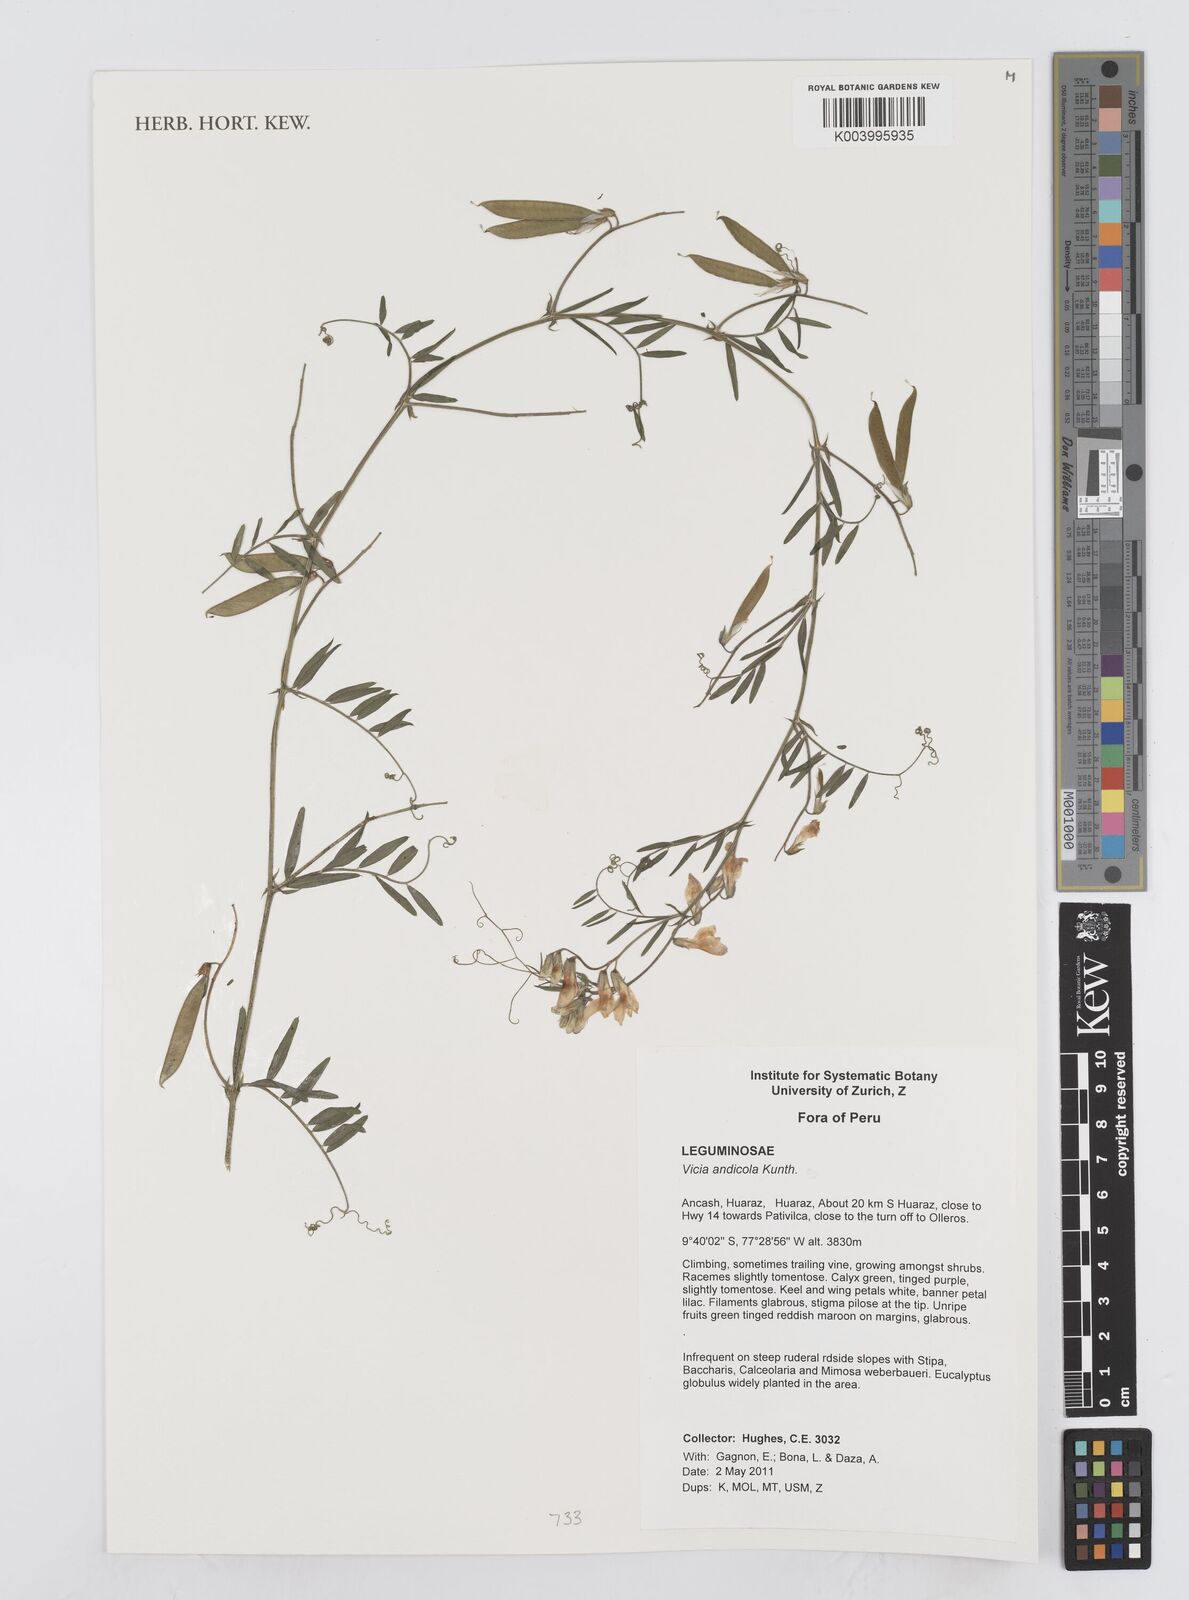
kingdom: Plantae
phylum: Tracheophyta
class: Magnoliopsida
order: Fabales
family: Fabaceae
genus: Vicia
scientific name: Vicia andicola
